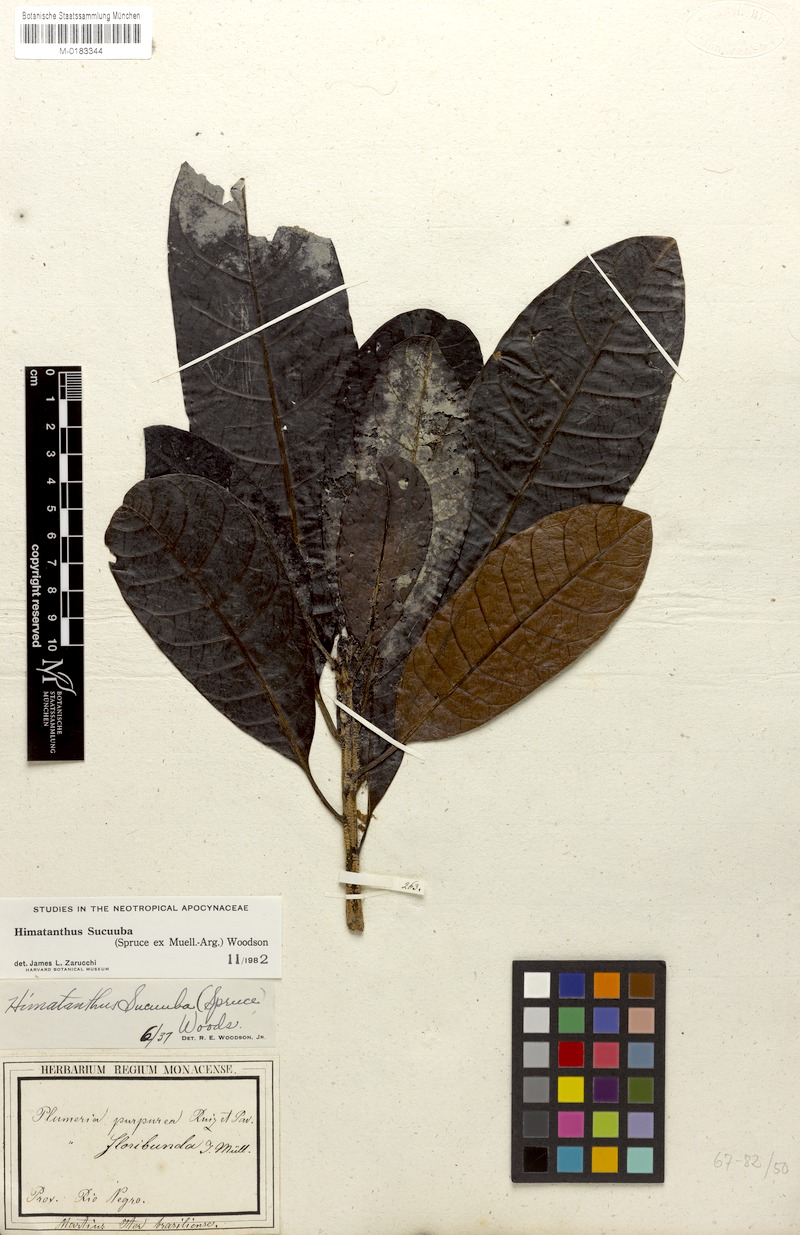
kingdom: Plantae
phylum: Tracheophyta
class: Magnoliopsida
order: Gentianales
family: Apocynaceae
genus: Himatanthus
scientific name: Himatanthus articulatus
